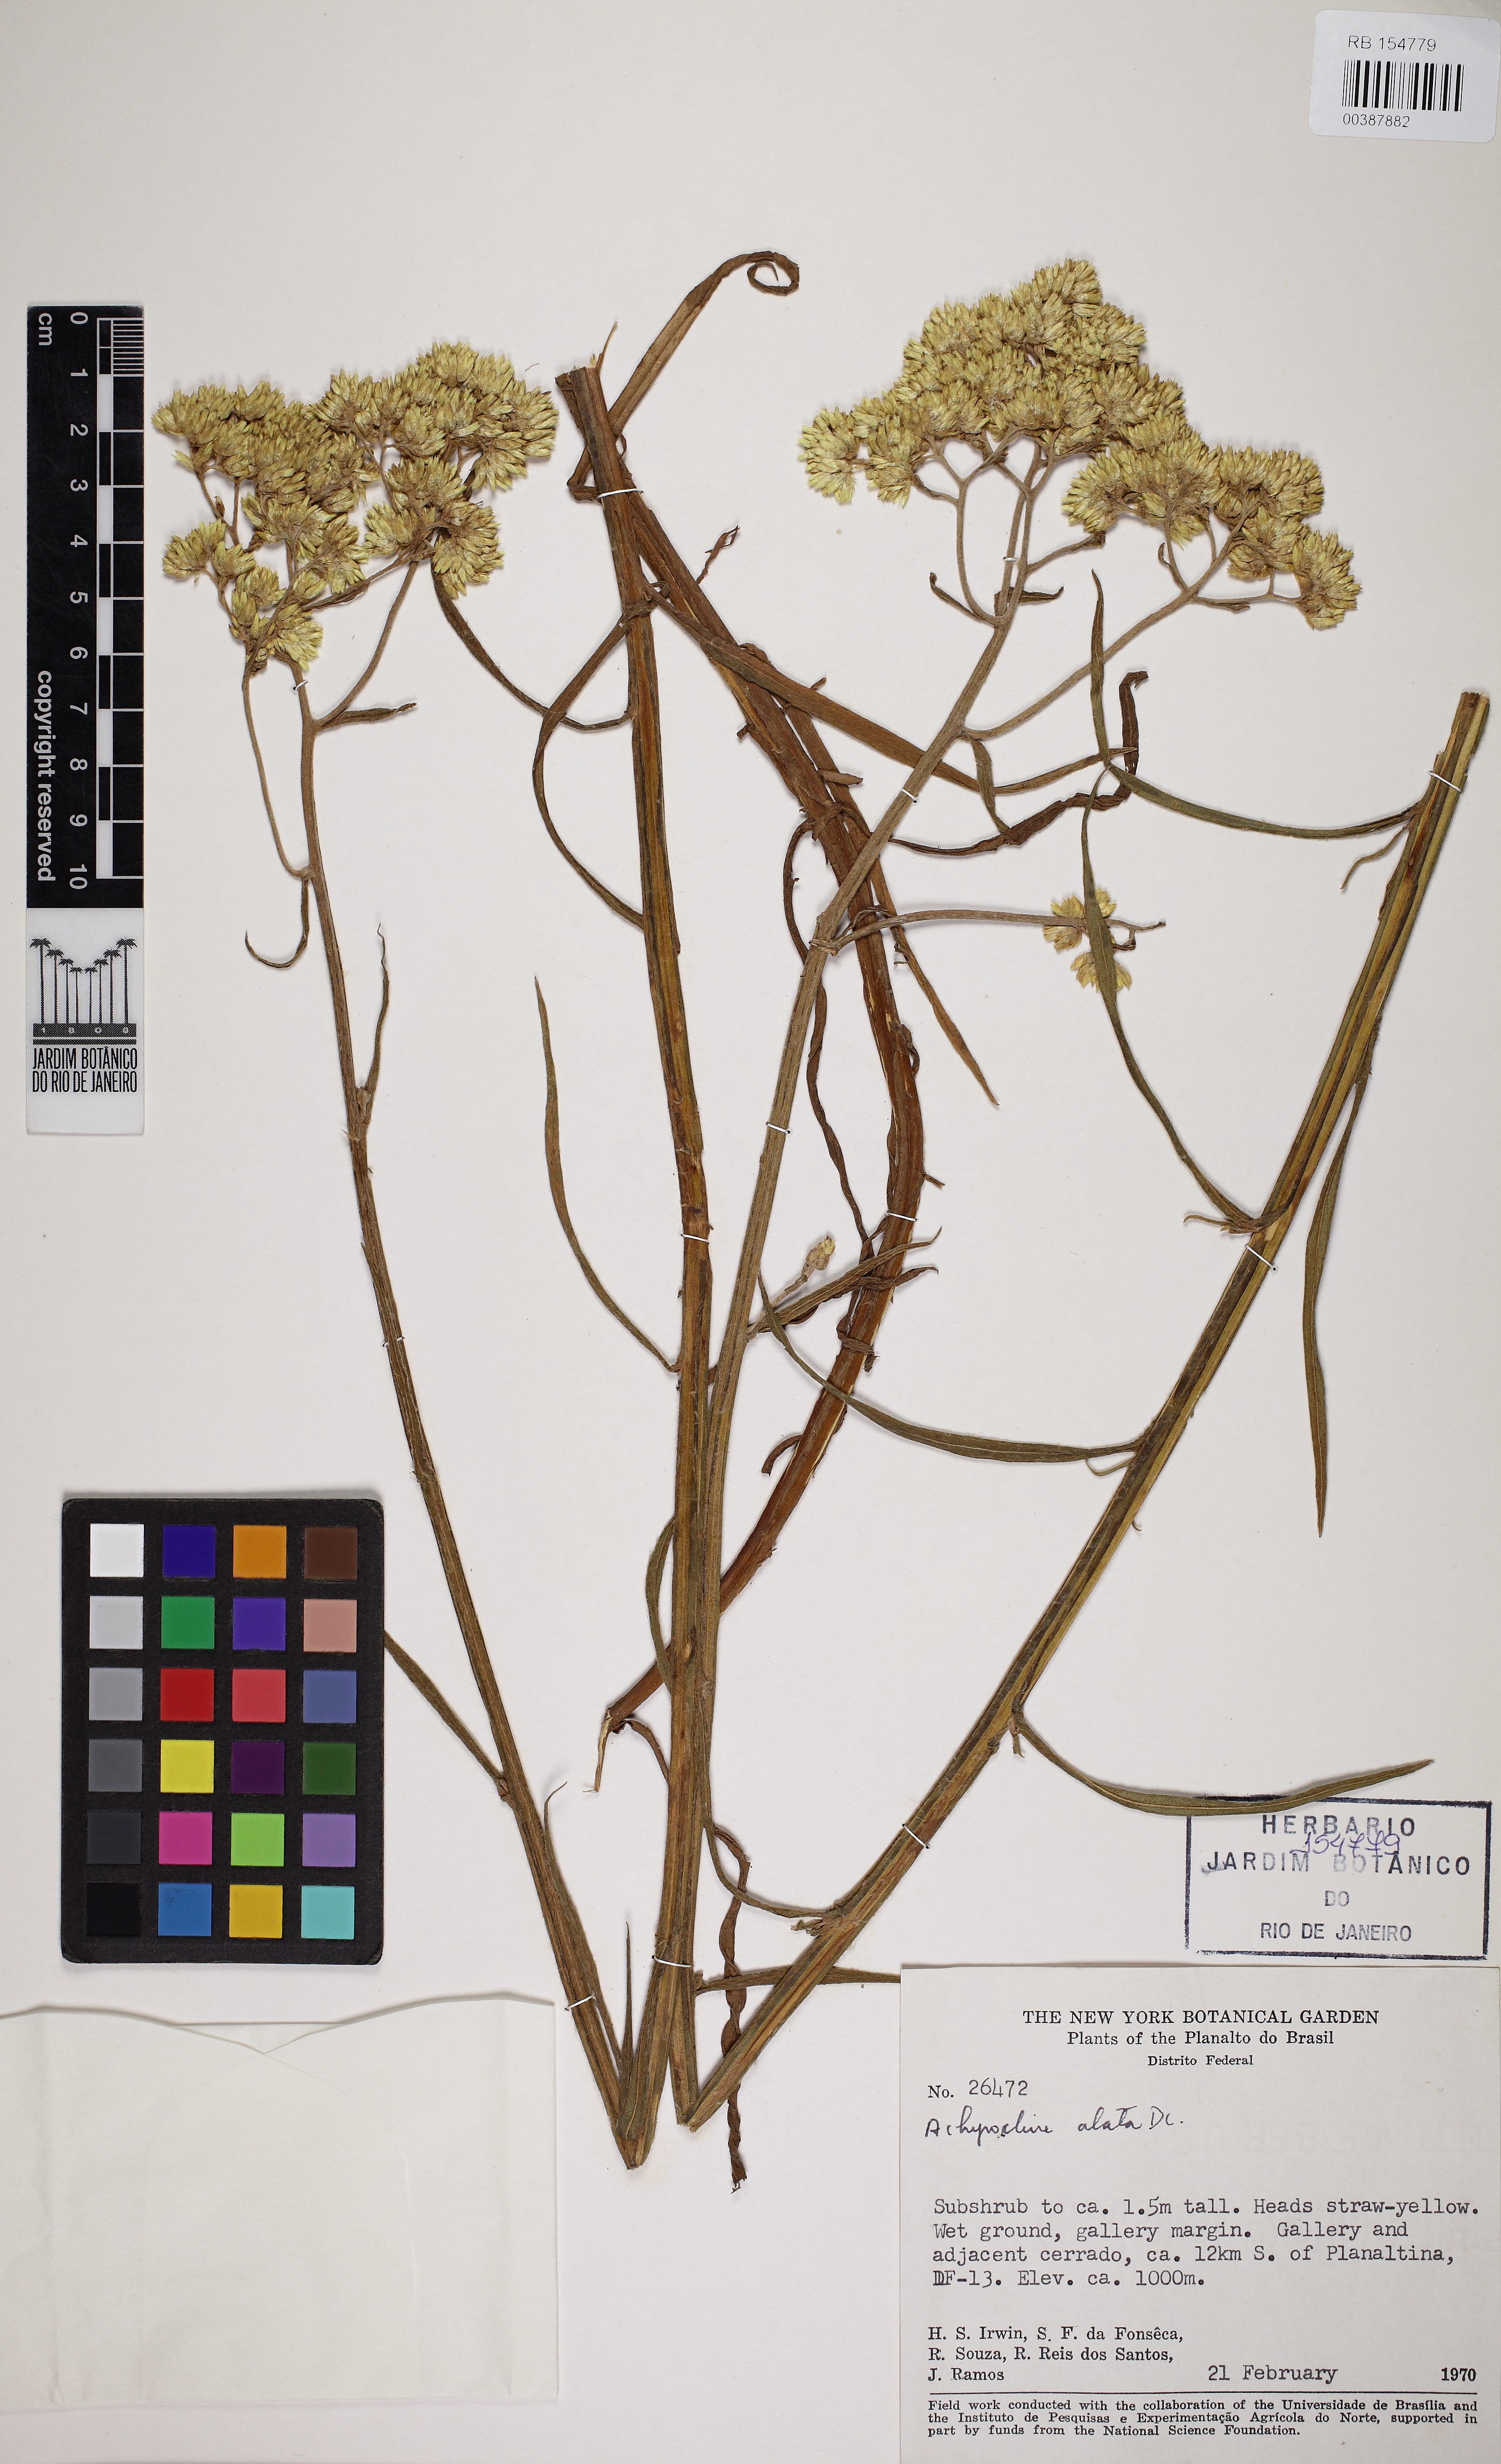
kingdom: Plantae
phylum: Tracheophyta
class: Magnoliopsida
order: Asterales
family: Asteraceae
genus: Achyrocline
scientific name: Achyrocline alata
